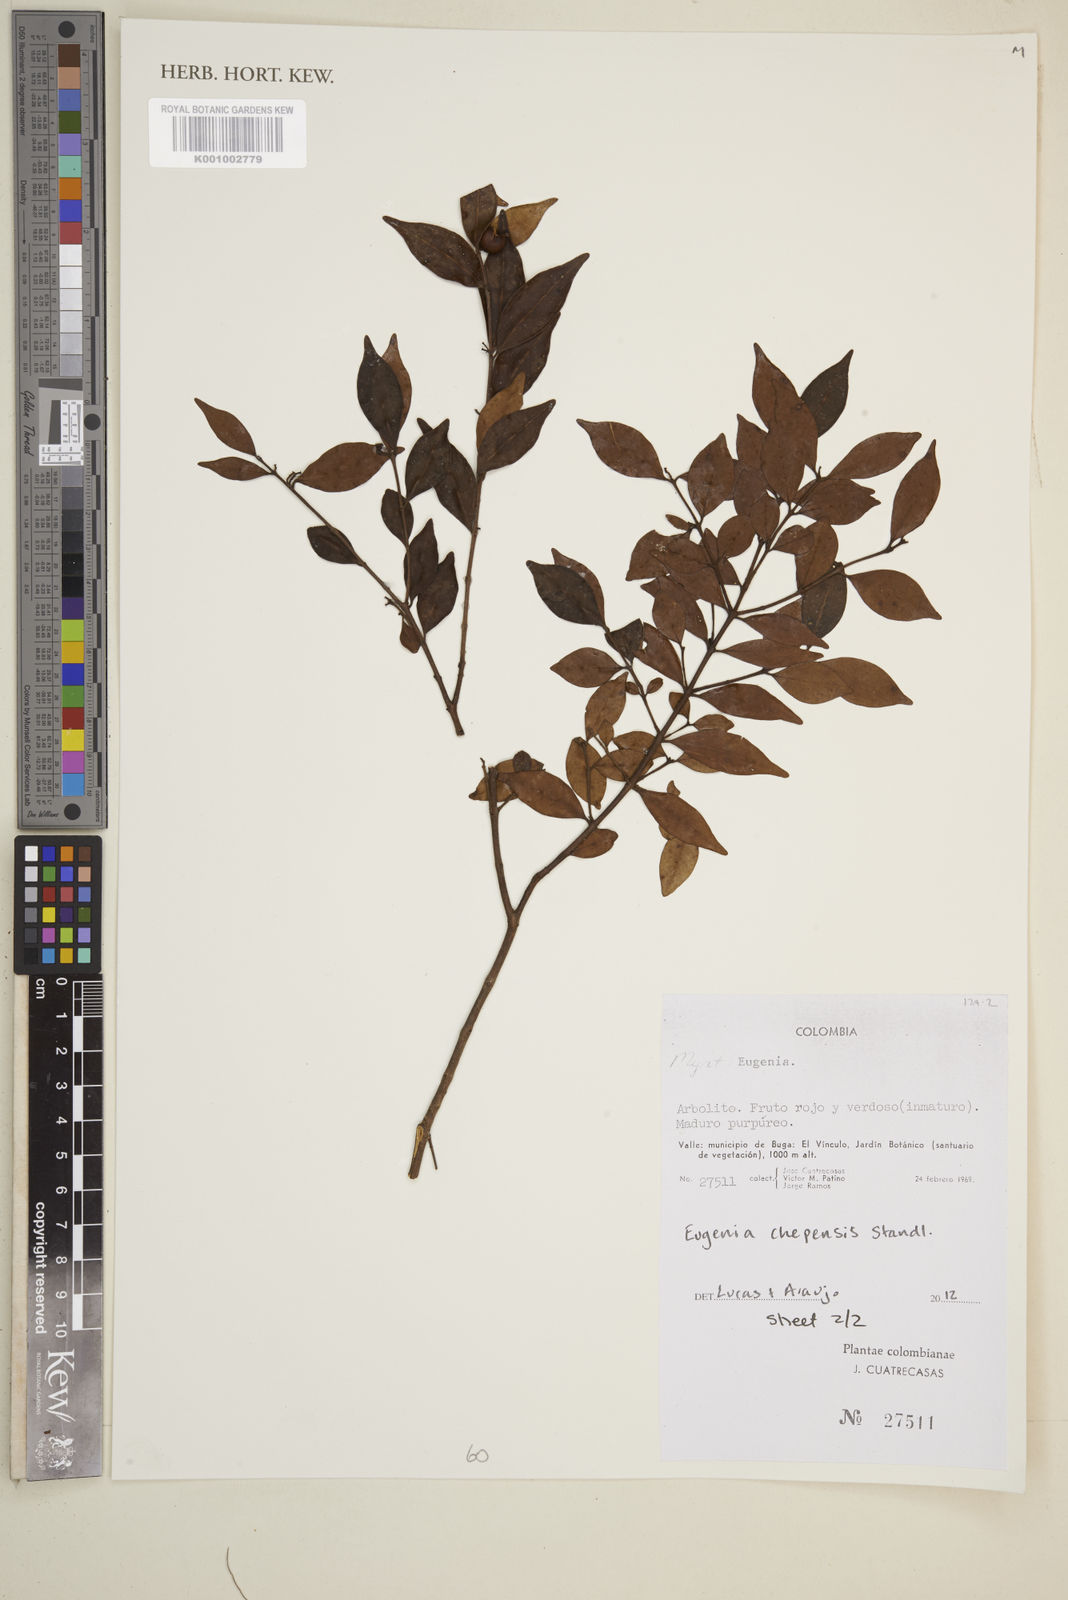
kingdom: Plantae
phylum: Tracheophyta
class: Magnoliopsida
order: Myrtales
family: Myrtaceae
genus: Eugenia
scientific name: Eugenia chepensis
